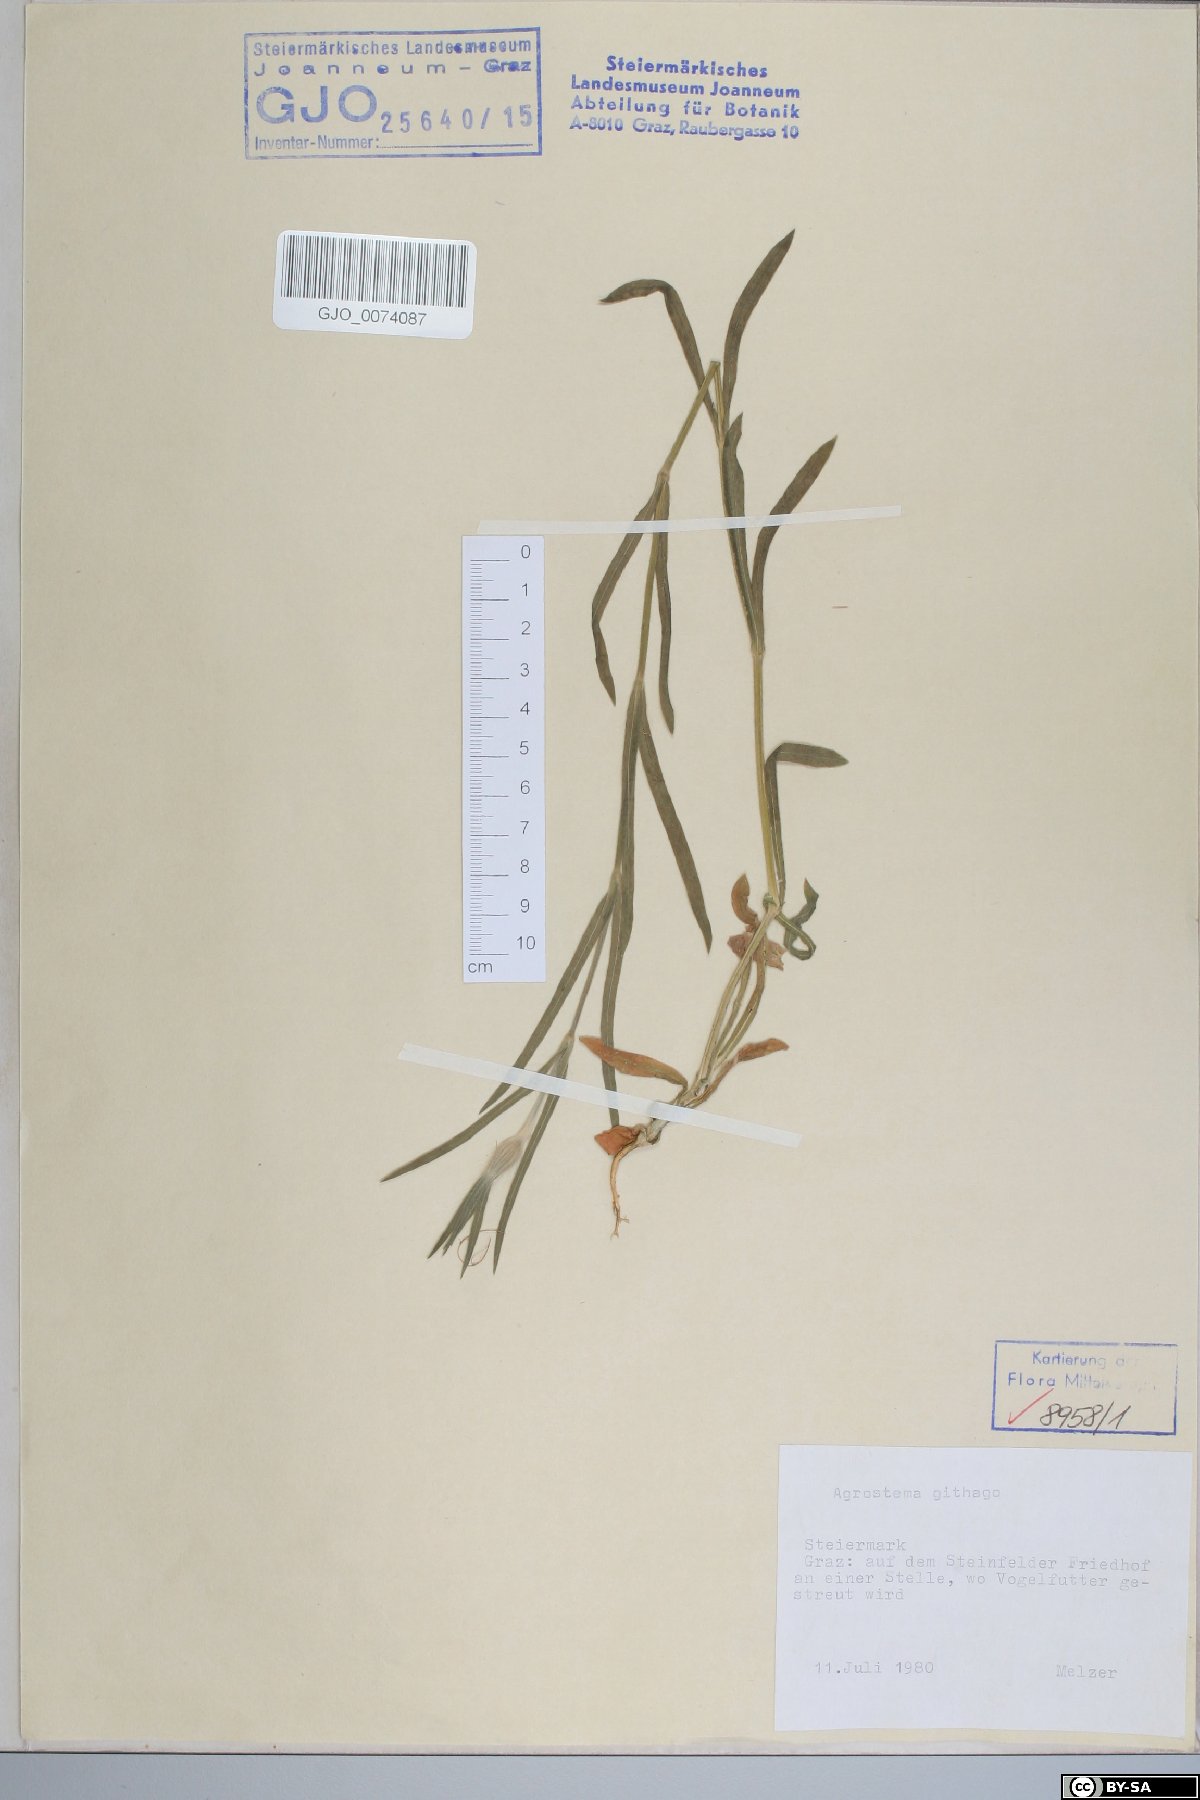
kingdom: Plantae
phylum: Tracheophyta
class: Magnoliopsida
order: Caryophyllales
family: Caryophyllaceae
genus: Agrostemma
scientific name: Agrostemma githago
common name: Common corncockle
